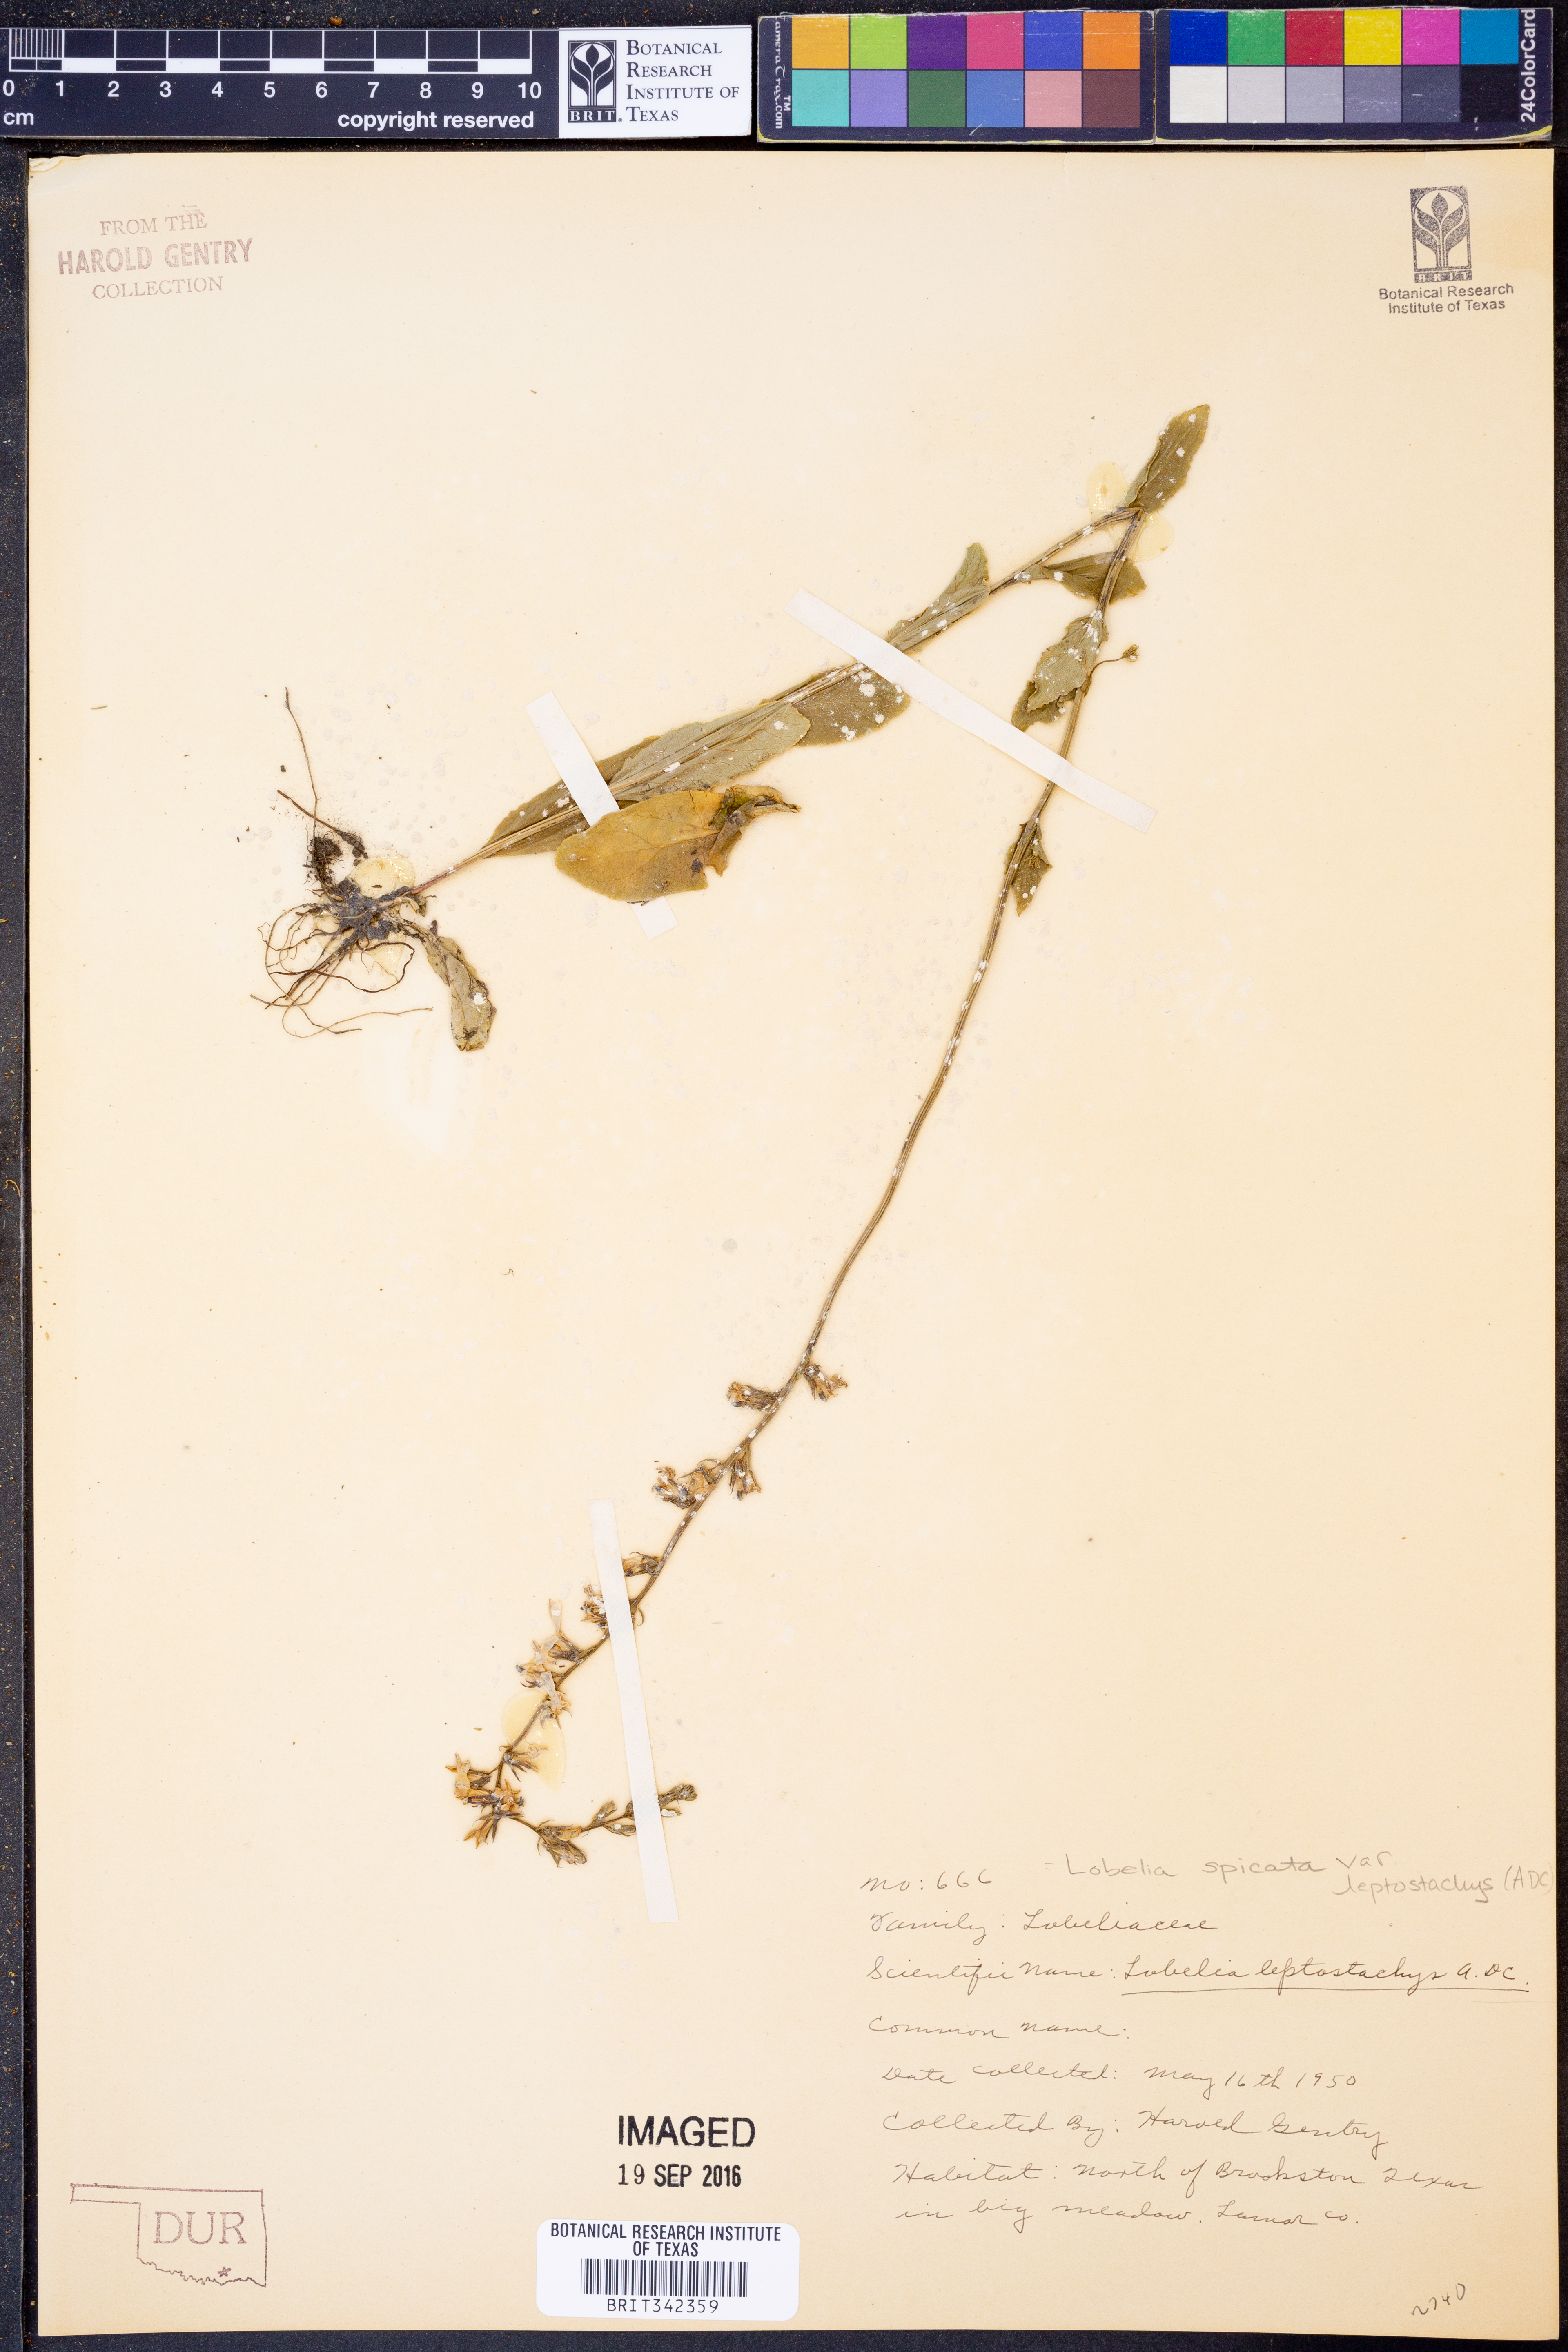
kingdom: Plantae
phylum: Tracheophyta
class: Magnoliopsida
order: Asterales
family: Campanulaceae
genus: Lobelia
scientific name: Lobelia spicata
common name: Pale-spike lobelia
